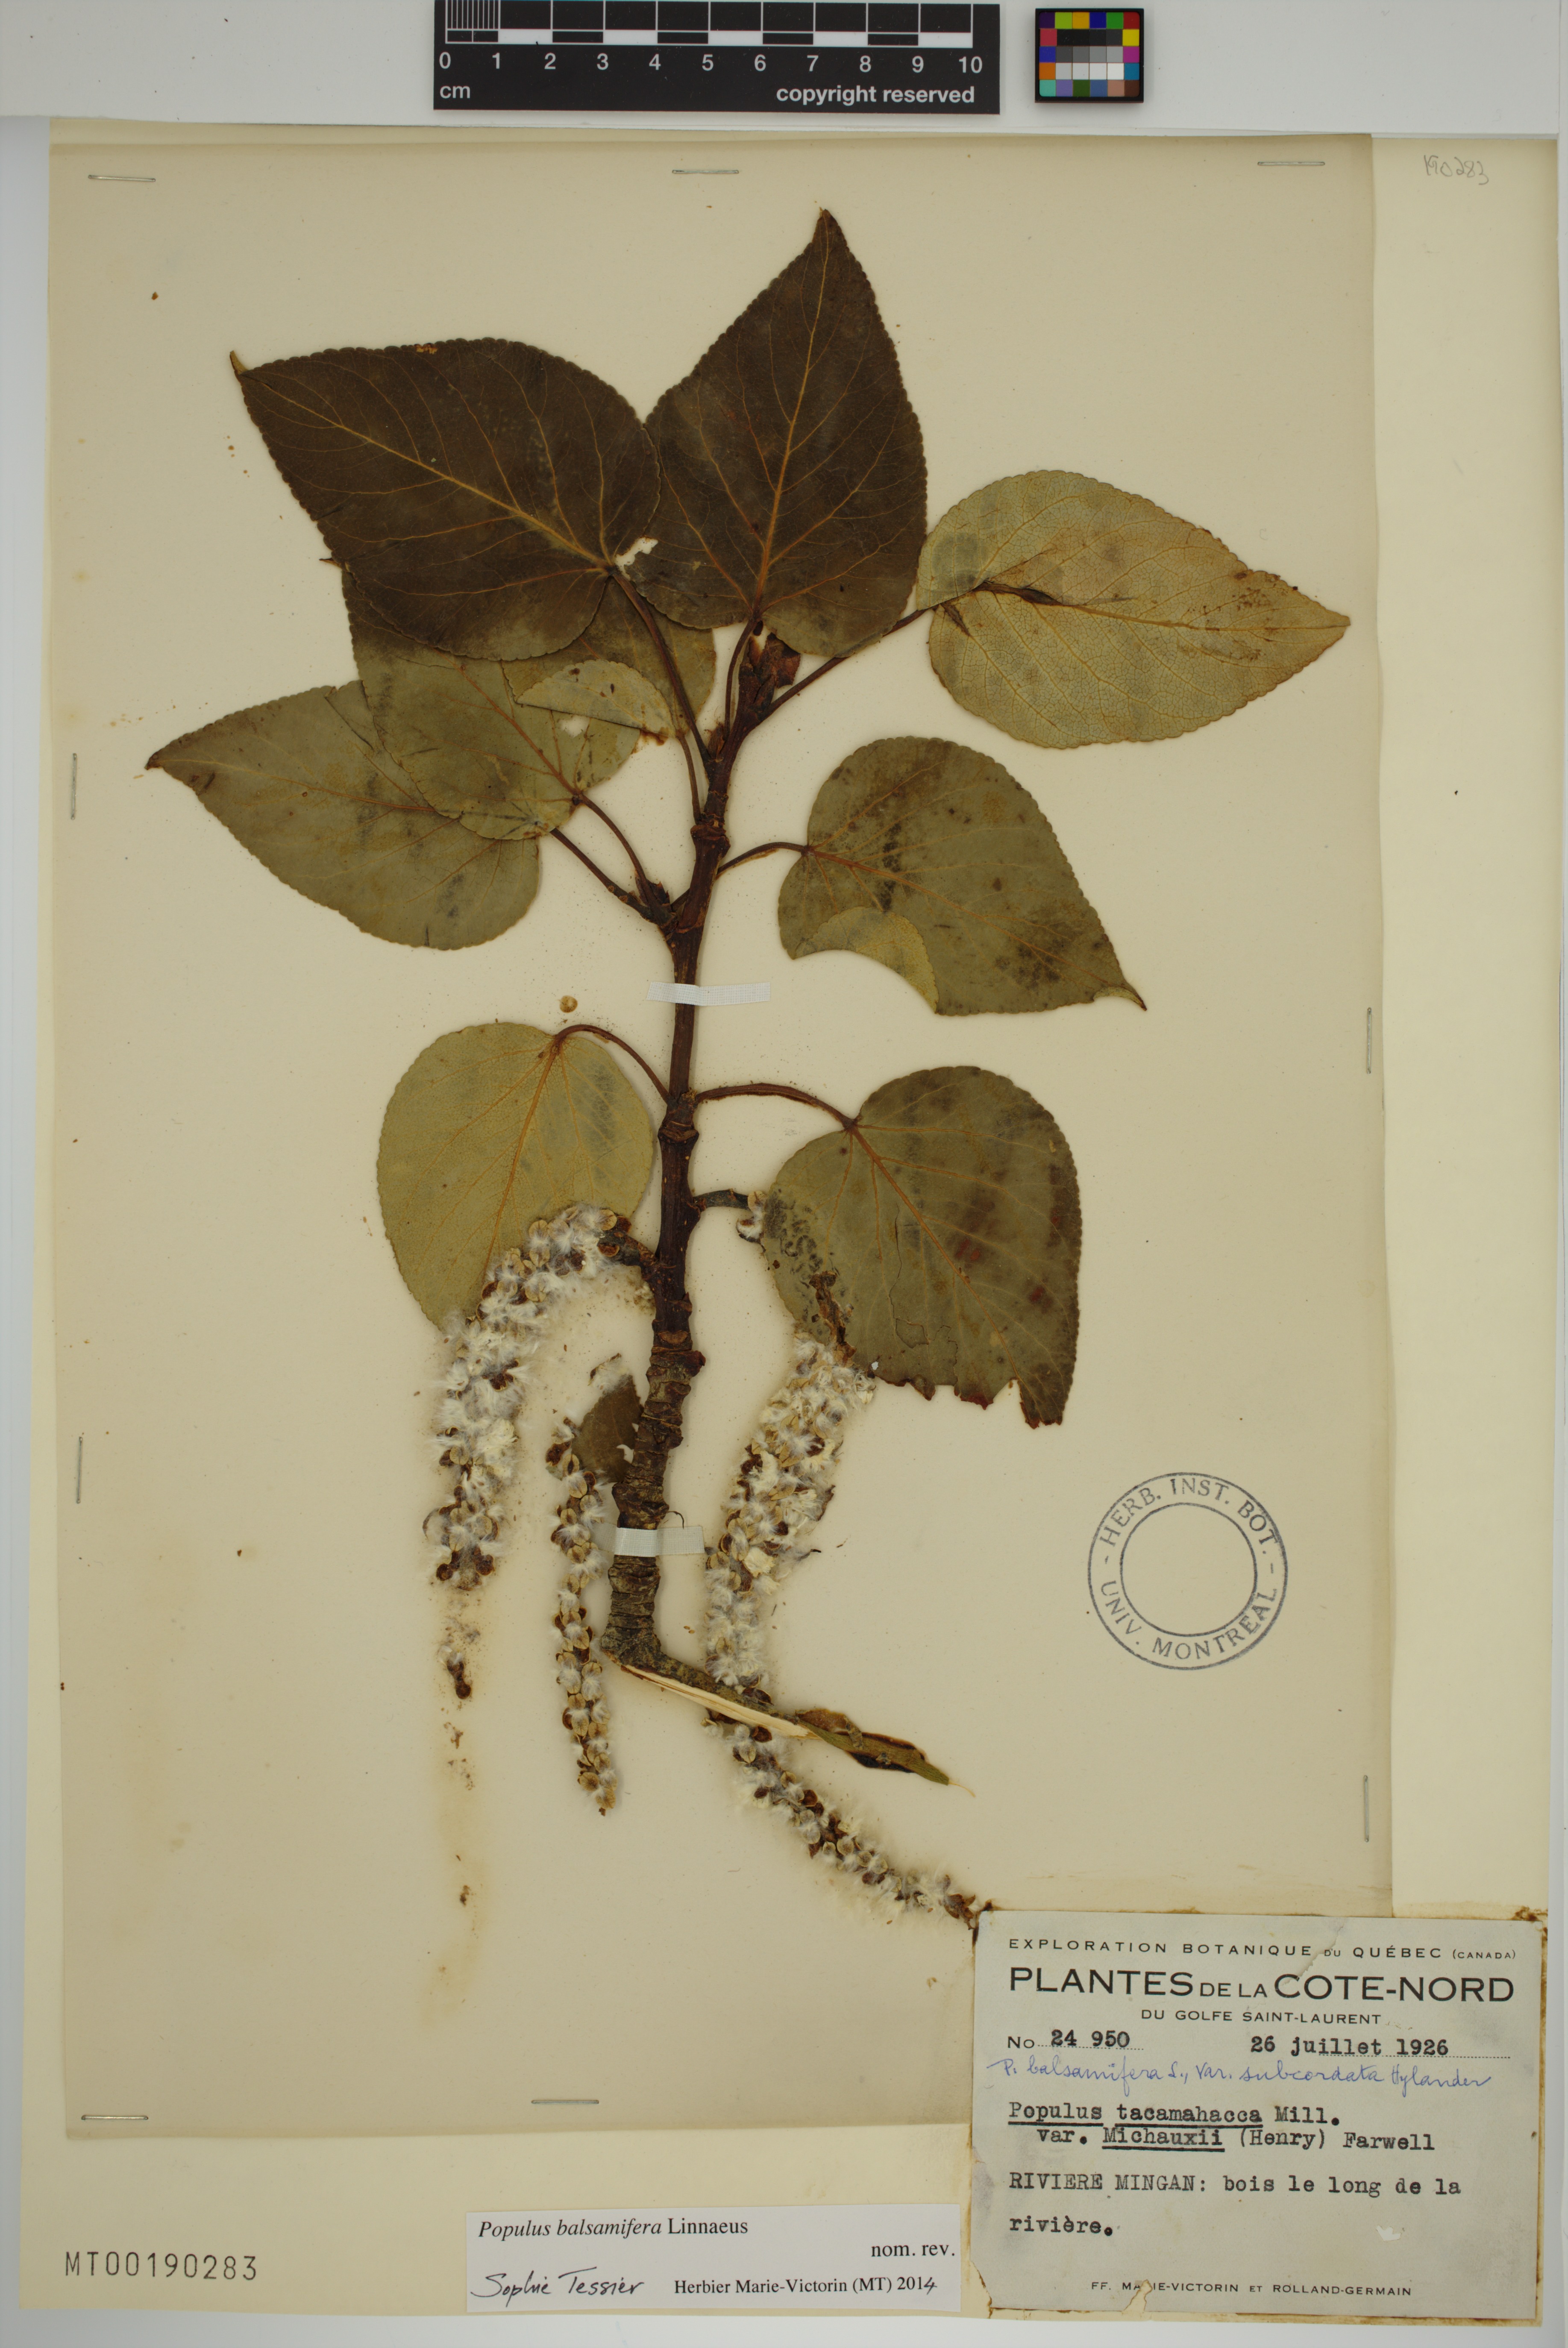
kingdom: Plantae
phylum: Tracheophyta
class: Magnoliopsida
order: Malpighiales
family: Salicaceae
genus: Populus
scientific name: Populus balsamifera
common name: Balsam poplar
